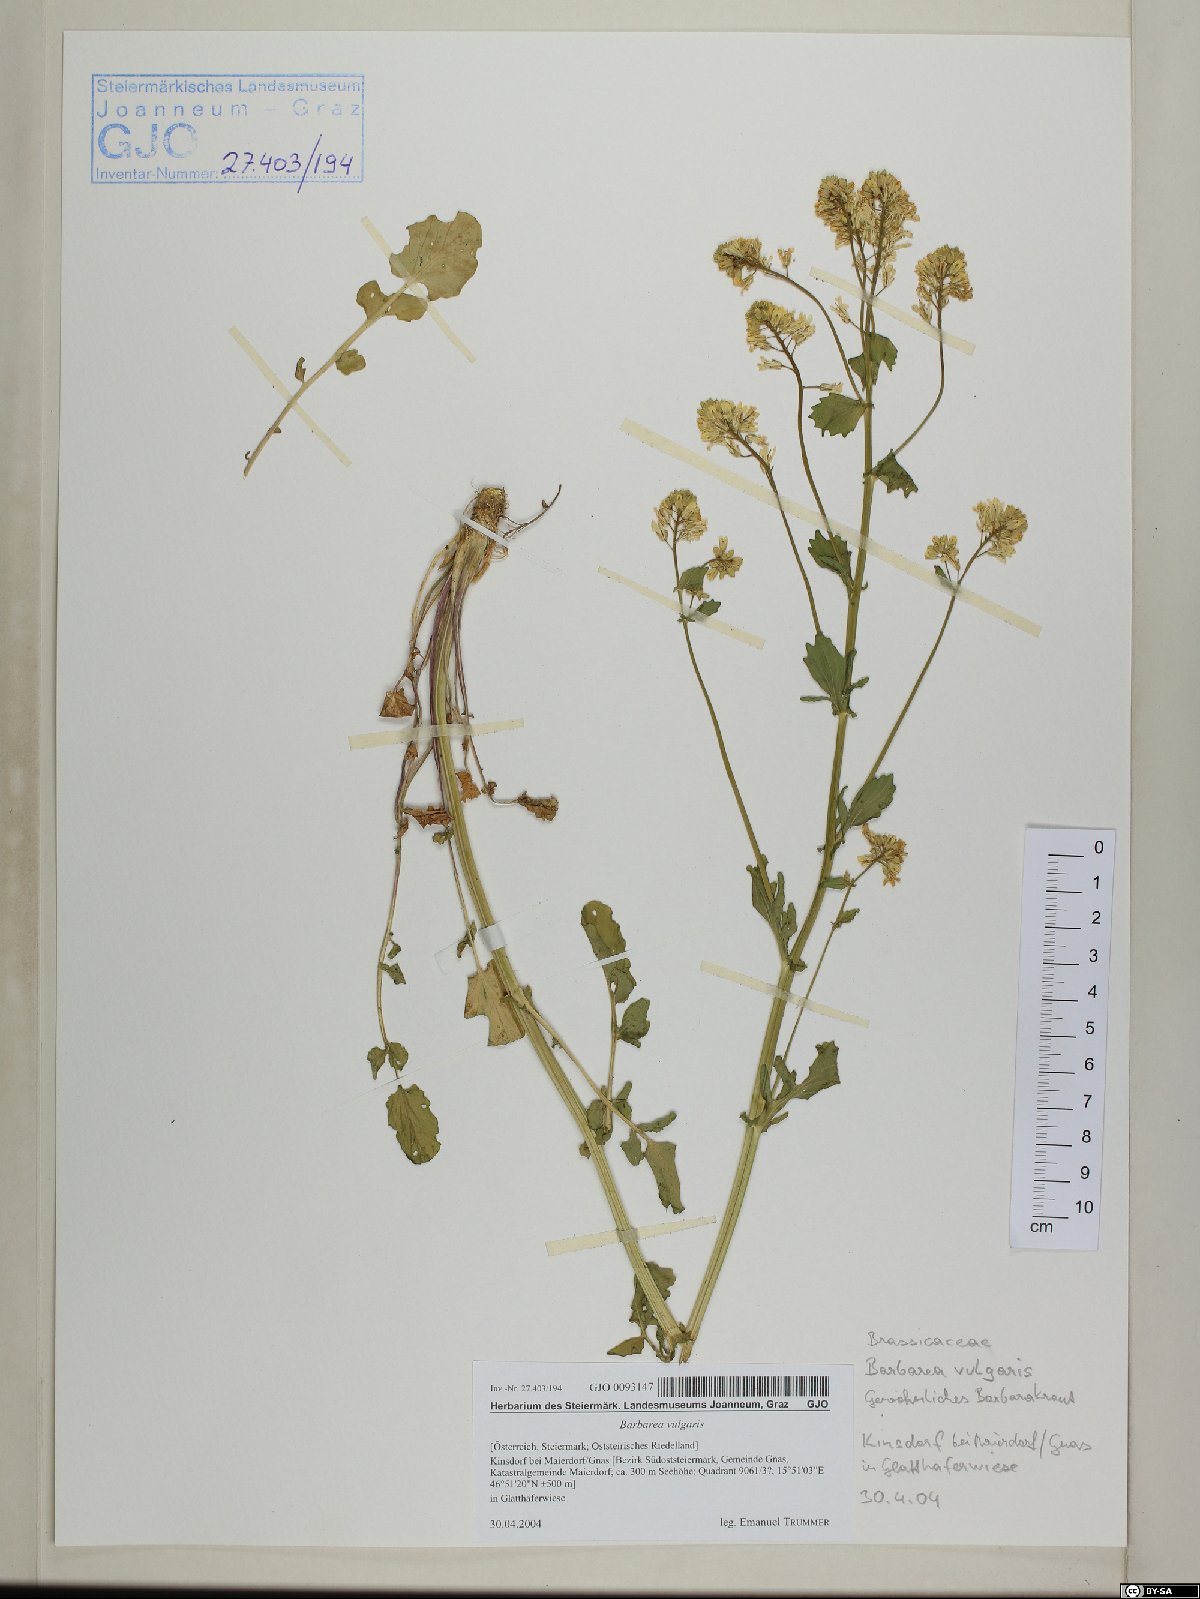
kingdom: Plantae
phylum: Tracheophyta
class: Magnoliopsida
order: Brassicales
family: Brassicaceae
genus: Barbarea
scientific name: Barbarea vulgaris
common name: Cressy-greens
